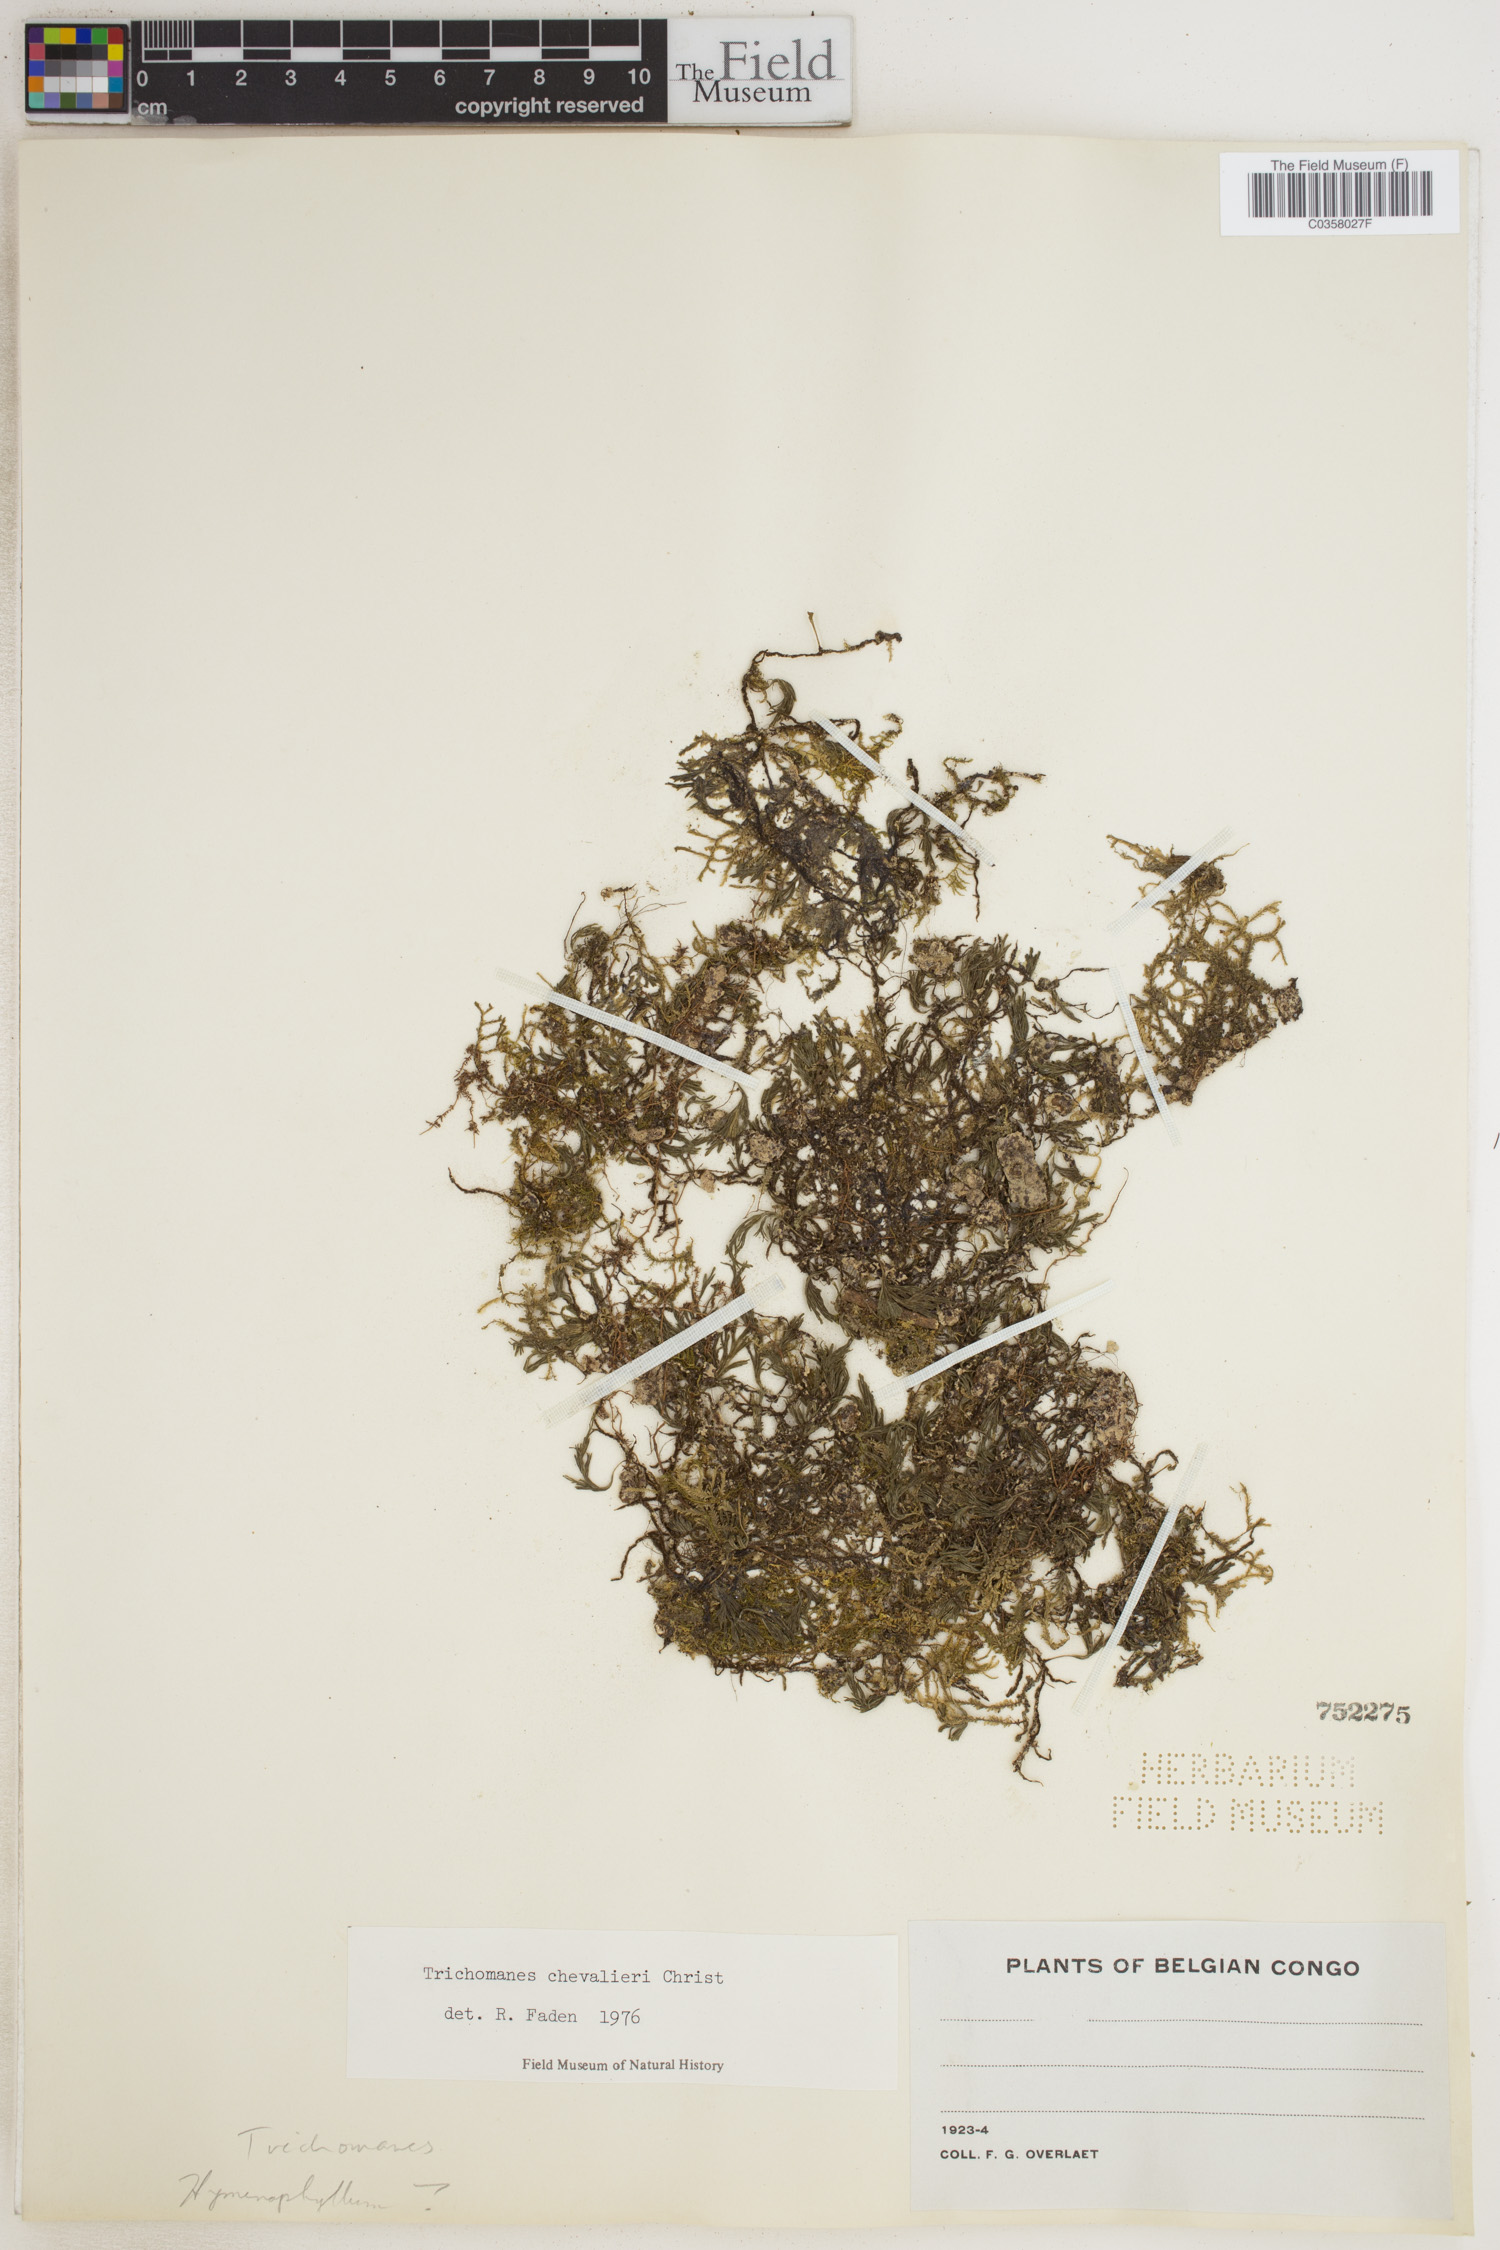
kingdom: Plantae
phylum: Tracheophyta
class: Polypodiopsida
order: Hymenophyllales
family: Hymenophyllaceae
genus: Crepidomanes
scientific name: Crepidomanes chevalieri
